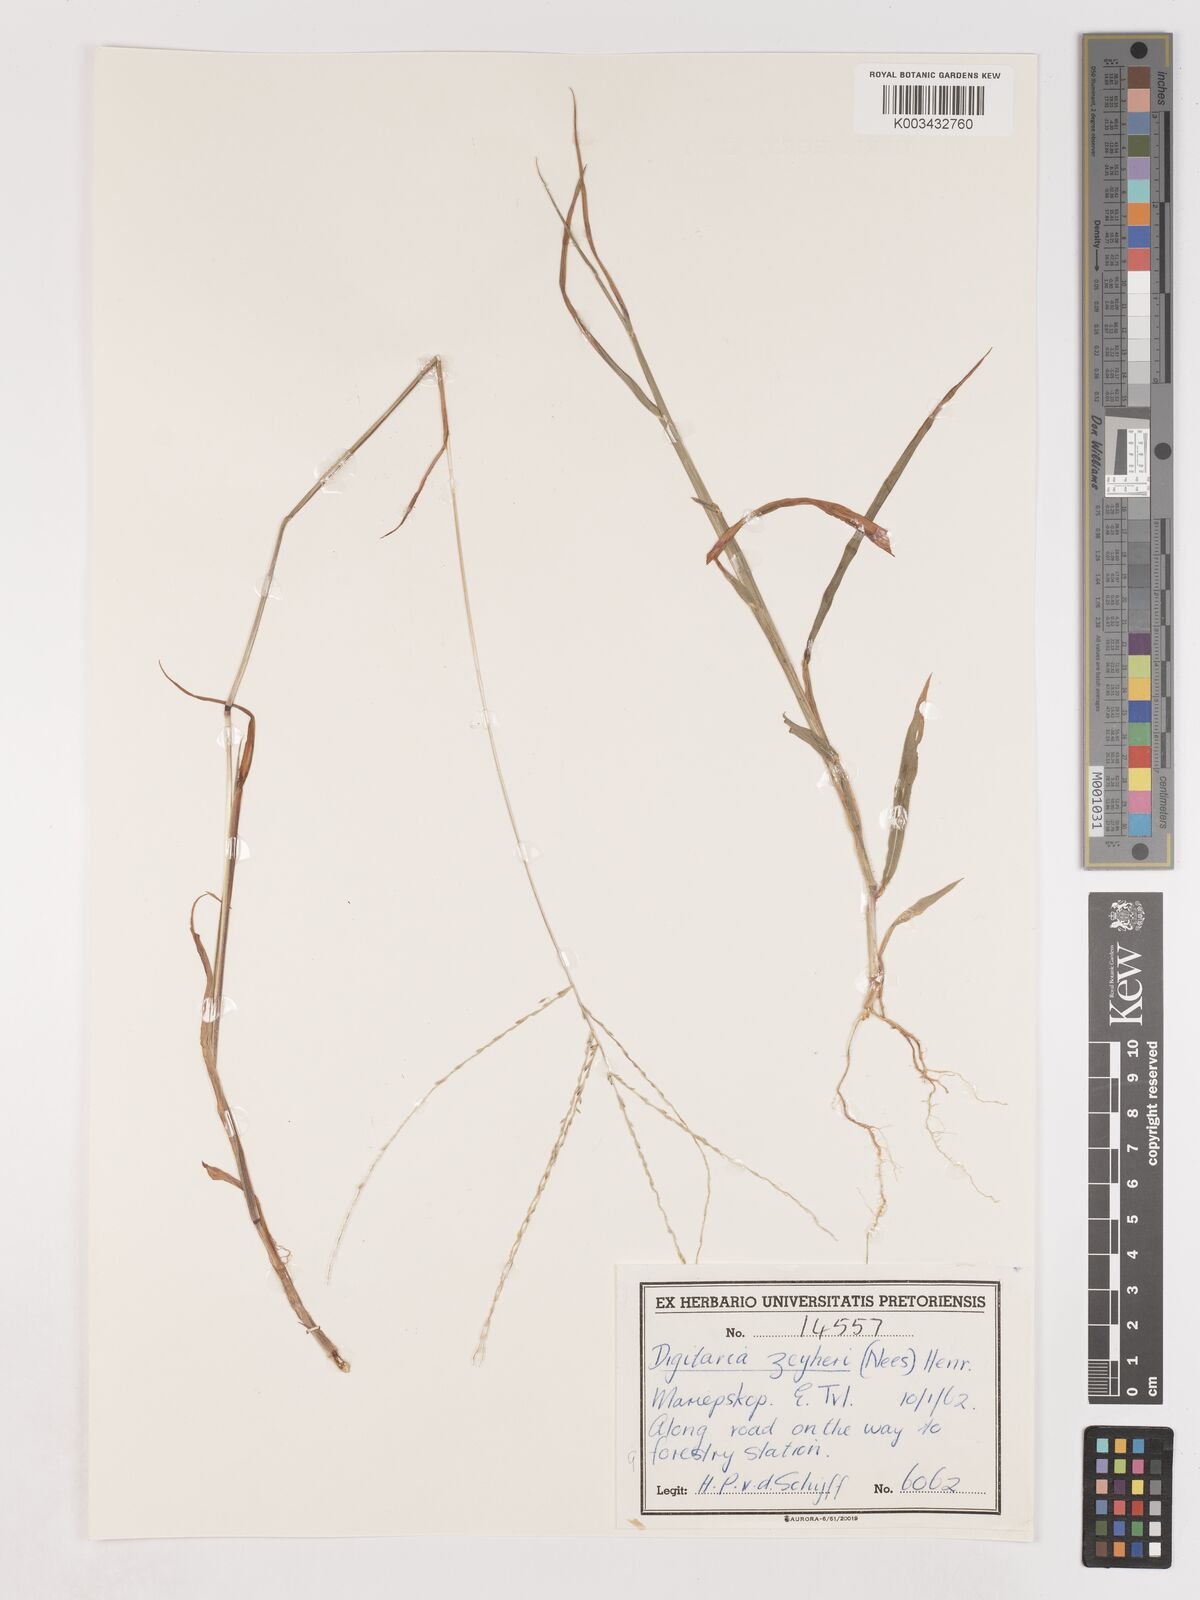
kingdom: Plantae
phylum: Tracheophyta
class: Liliopsida
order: Poales
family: Poaceae
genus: Digitaria
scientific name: Digitaria debilis
